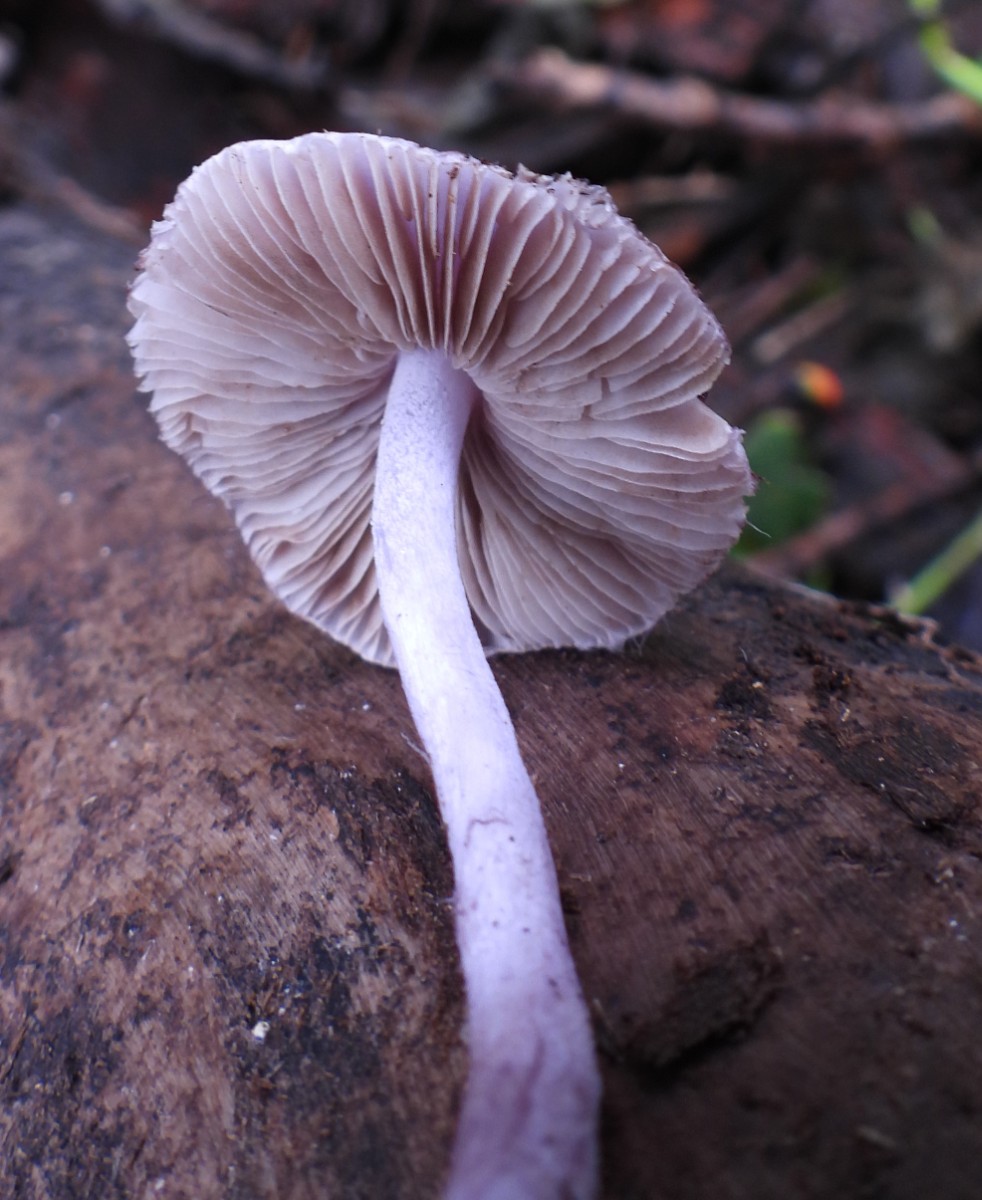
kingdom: Fungi
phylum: Basidiomycota
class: Agaricomycetes
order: Agaricales
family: Inocybaceae
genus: Inocybe
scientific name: Inocybe geophylla
